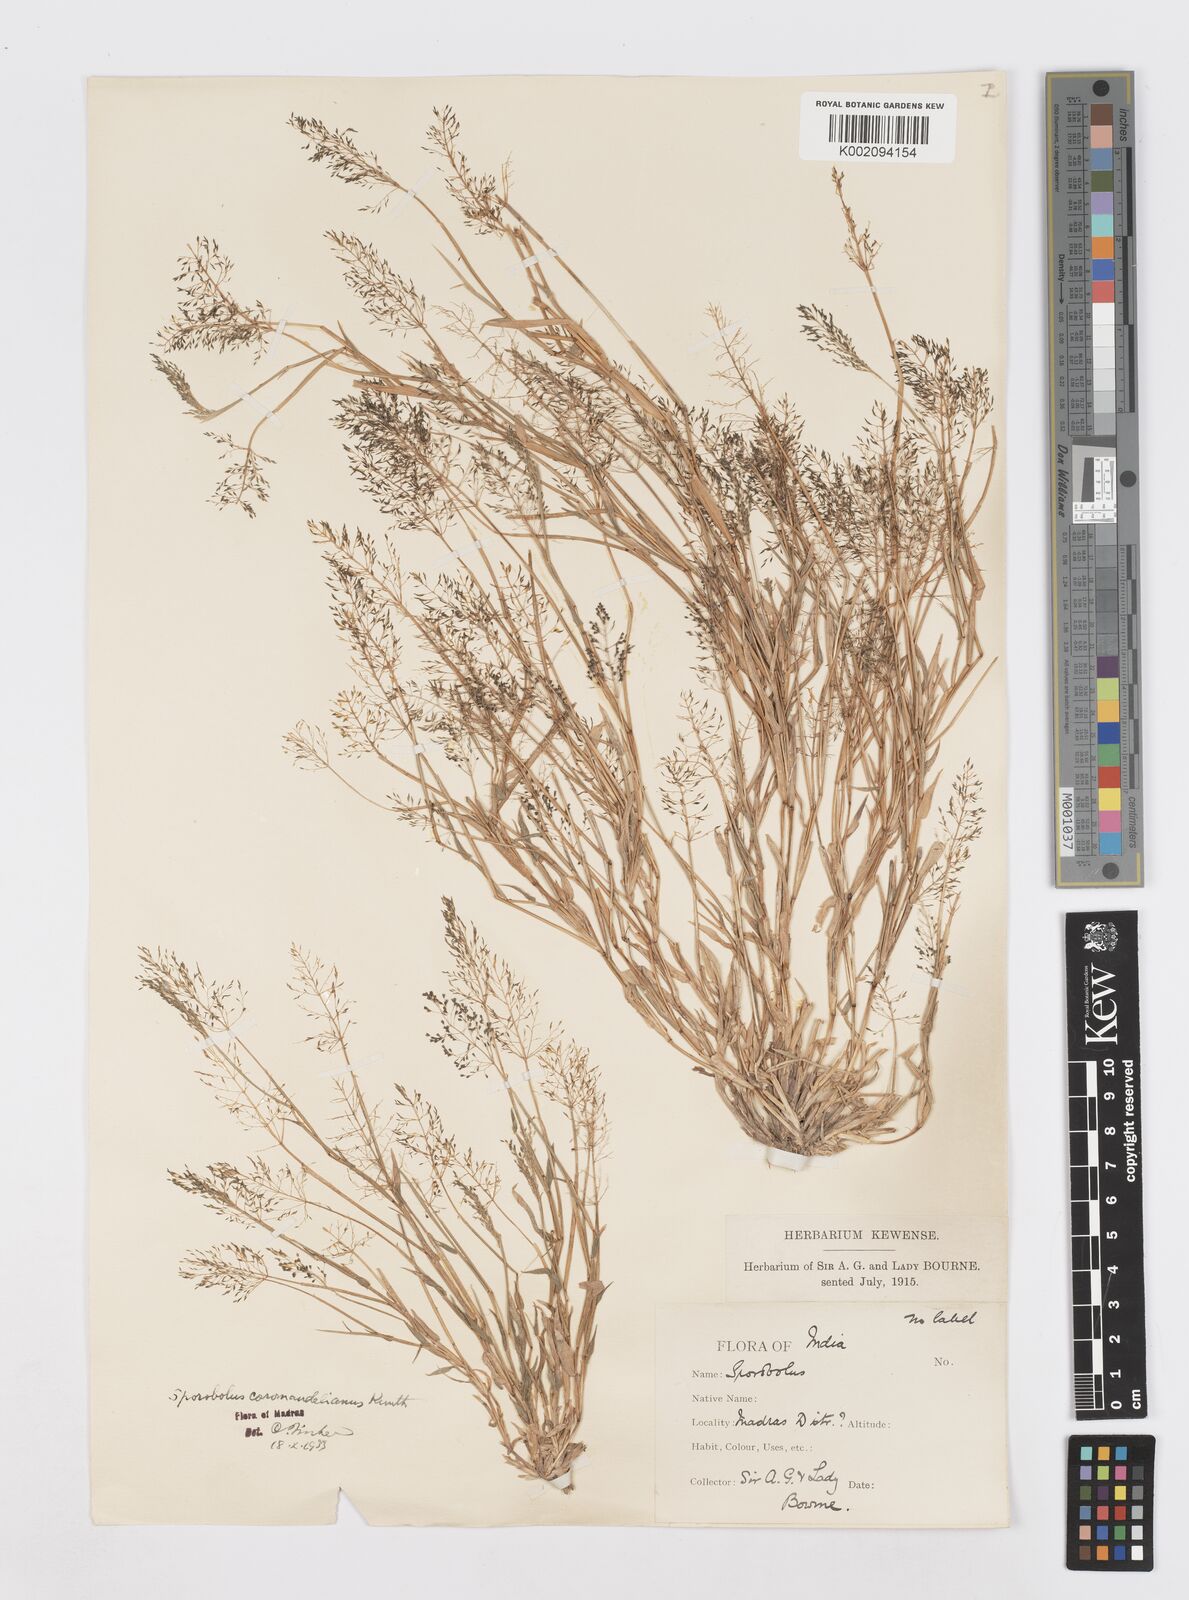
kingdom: Plantae
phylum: Tracheophyta
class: Liliopsida
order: Poales
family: Poaceae
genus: Sporobolus
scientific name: Sporobolus coromandelianus
